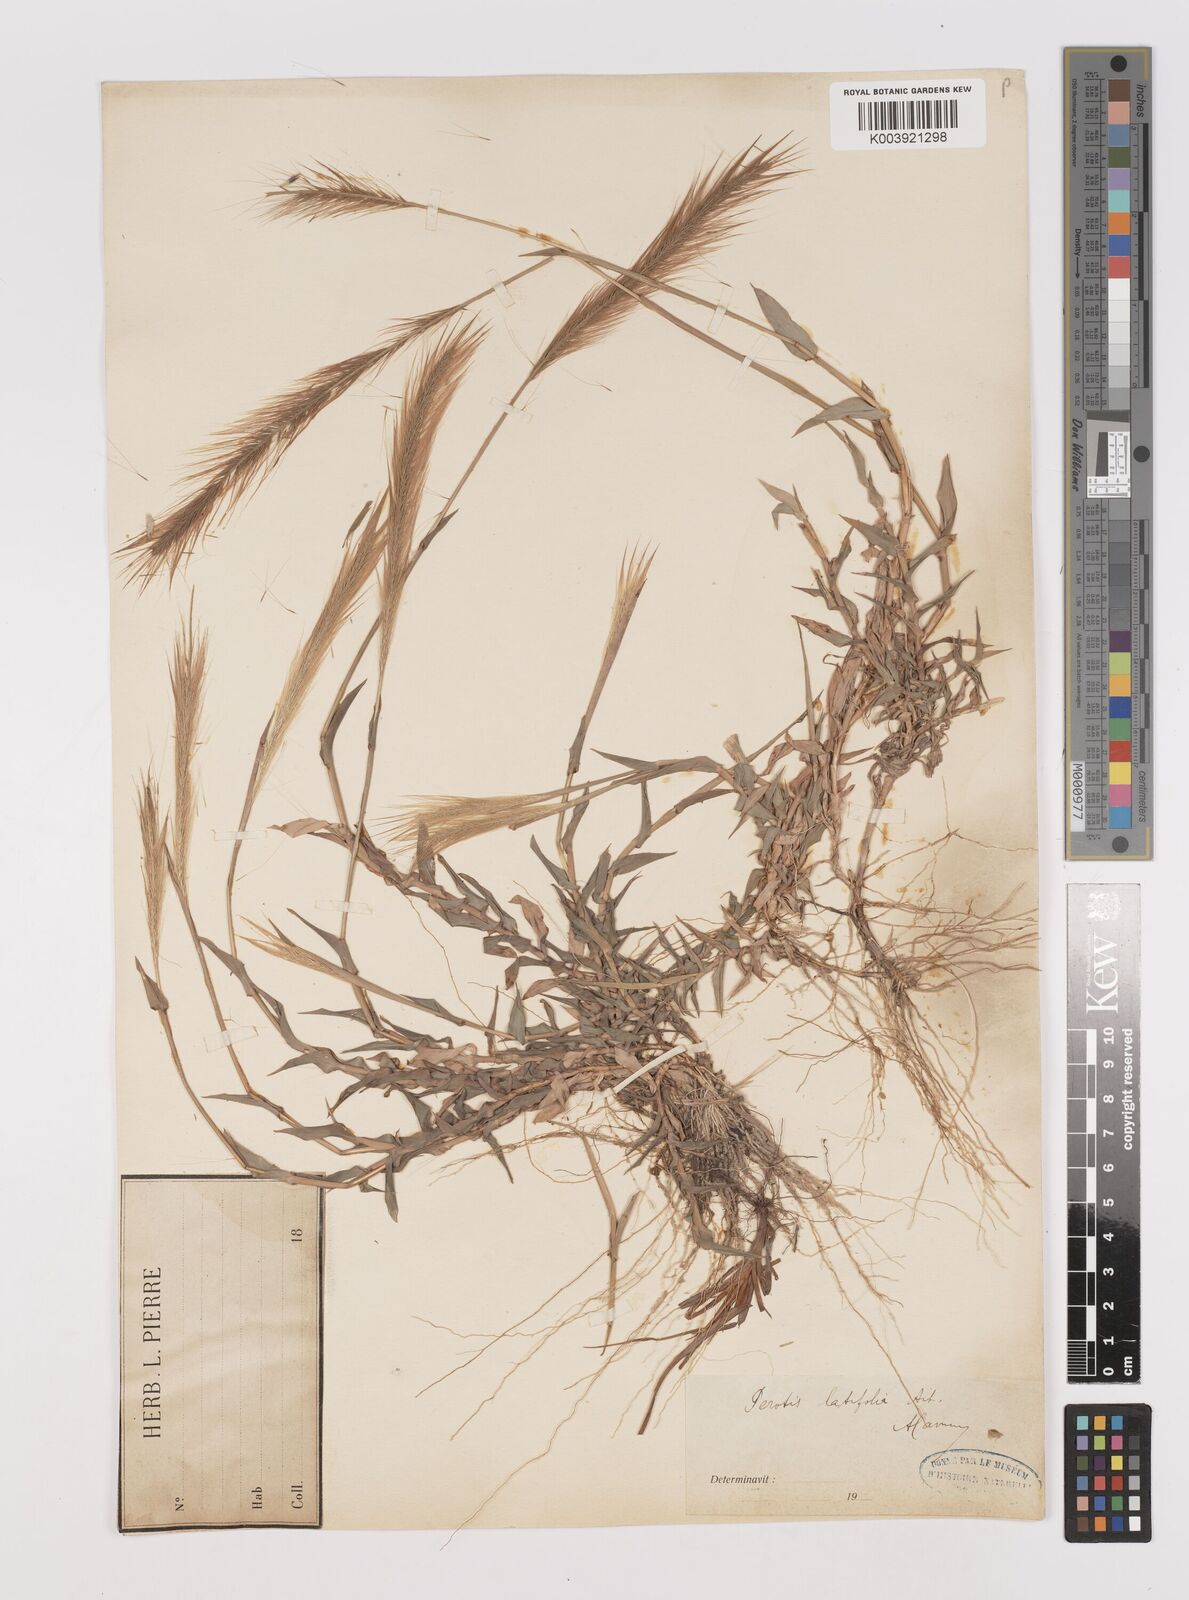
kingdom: Plantae
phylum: Tracheophyta
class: Liliopsida
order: Poales
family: Poaceae
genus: Perotis
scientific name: Perotis indica
